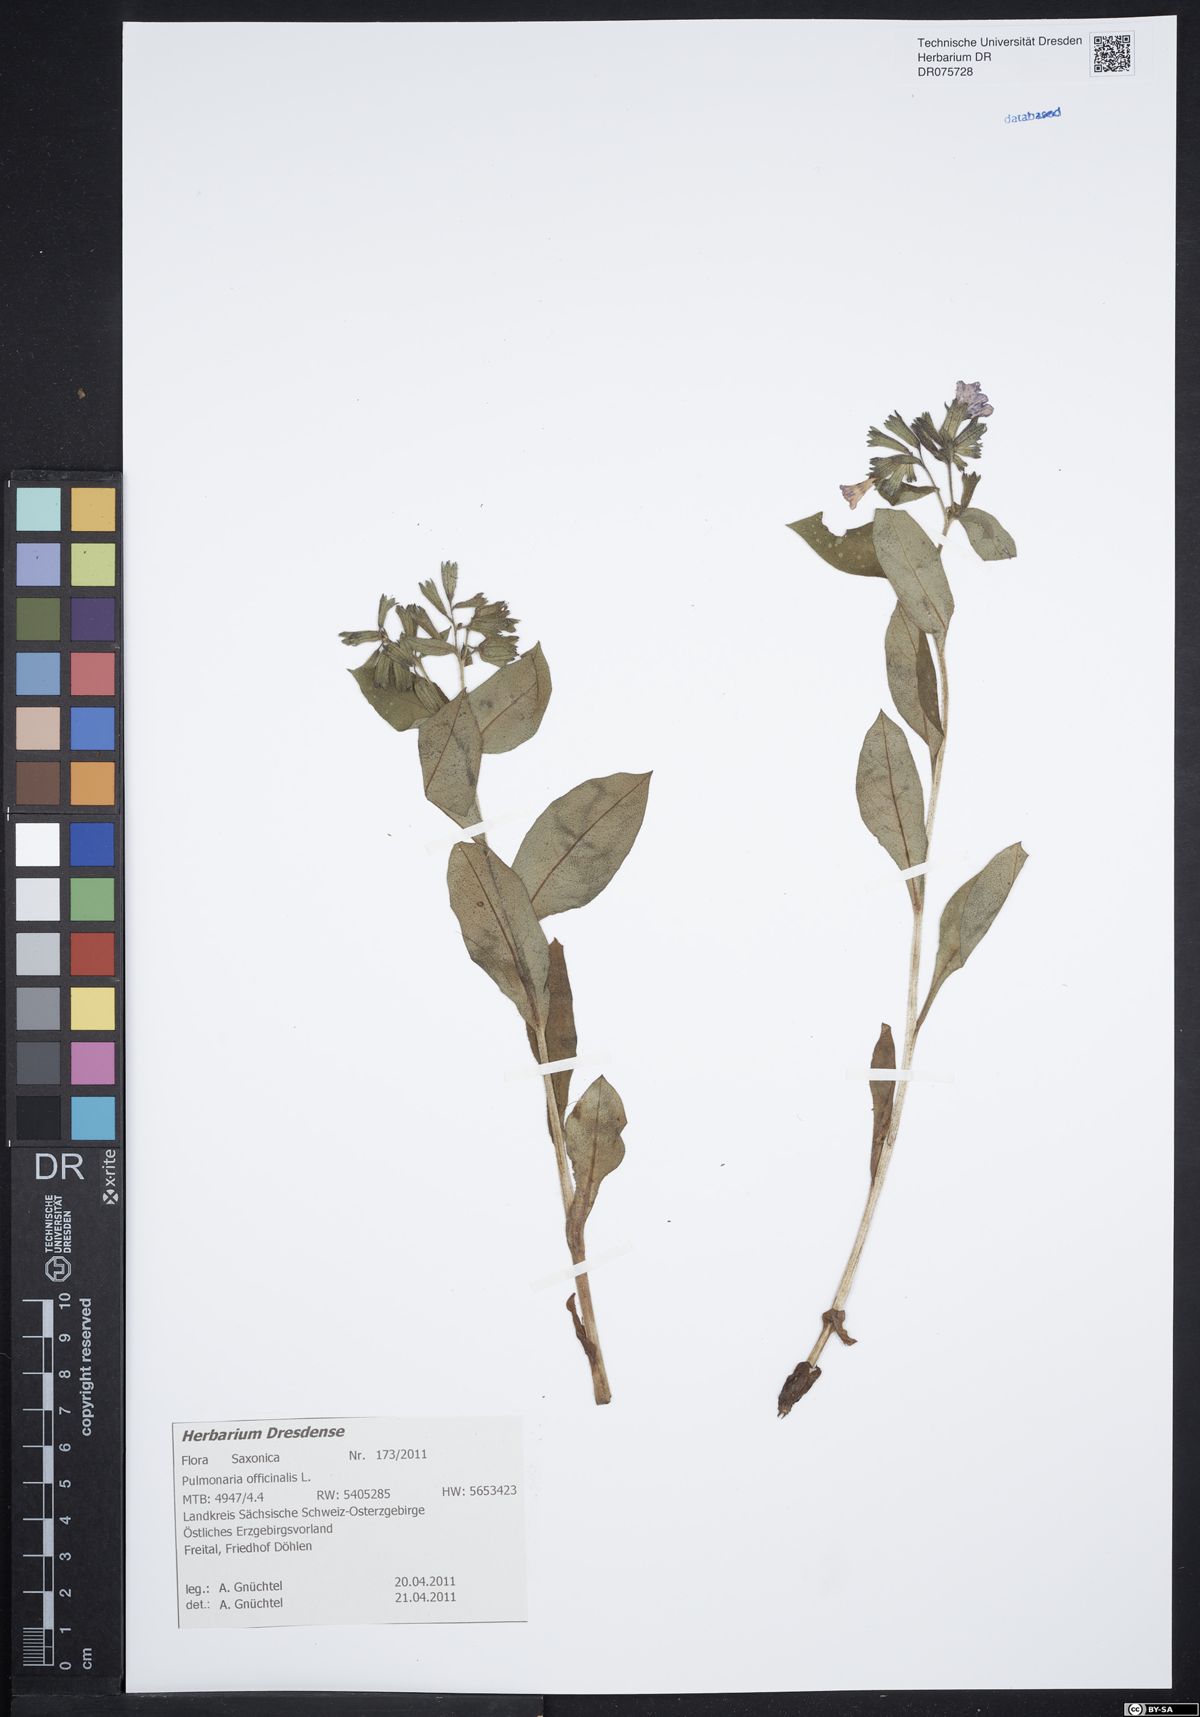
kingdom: Plantae
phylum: Tracheophyta
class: Magnoliopsida
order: Boraginales
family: Boraginaceae
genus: Pulmonaria
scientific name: Pulmonaria officinalis
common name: Lungwort
